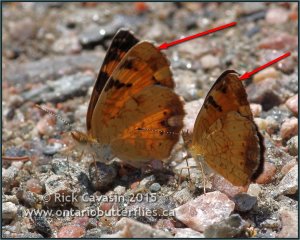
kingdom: Animalia
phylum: Arthropoda
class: Insecta
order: Lepidoptera
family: Nymphalidae
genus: Phyciodes
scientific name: Phyciodes tharos
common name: Northern Crescent
